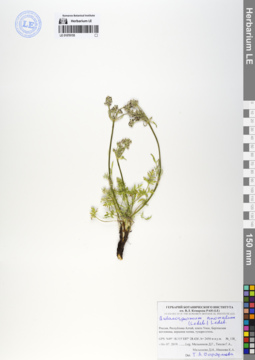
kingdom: Plantae
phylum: Tracheophyta
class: Magnoliopsida
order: Apiales
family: Apiaceae
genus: Aulacospermum
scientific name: Aulacospermum anomalum
